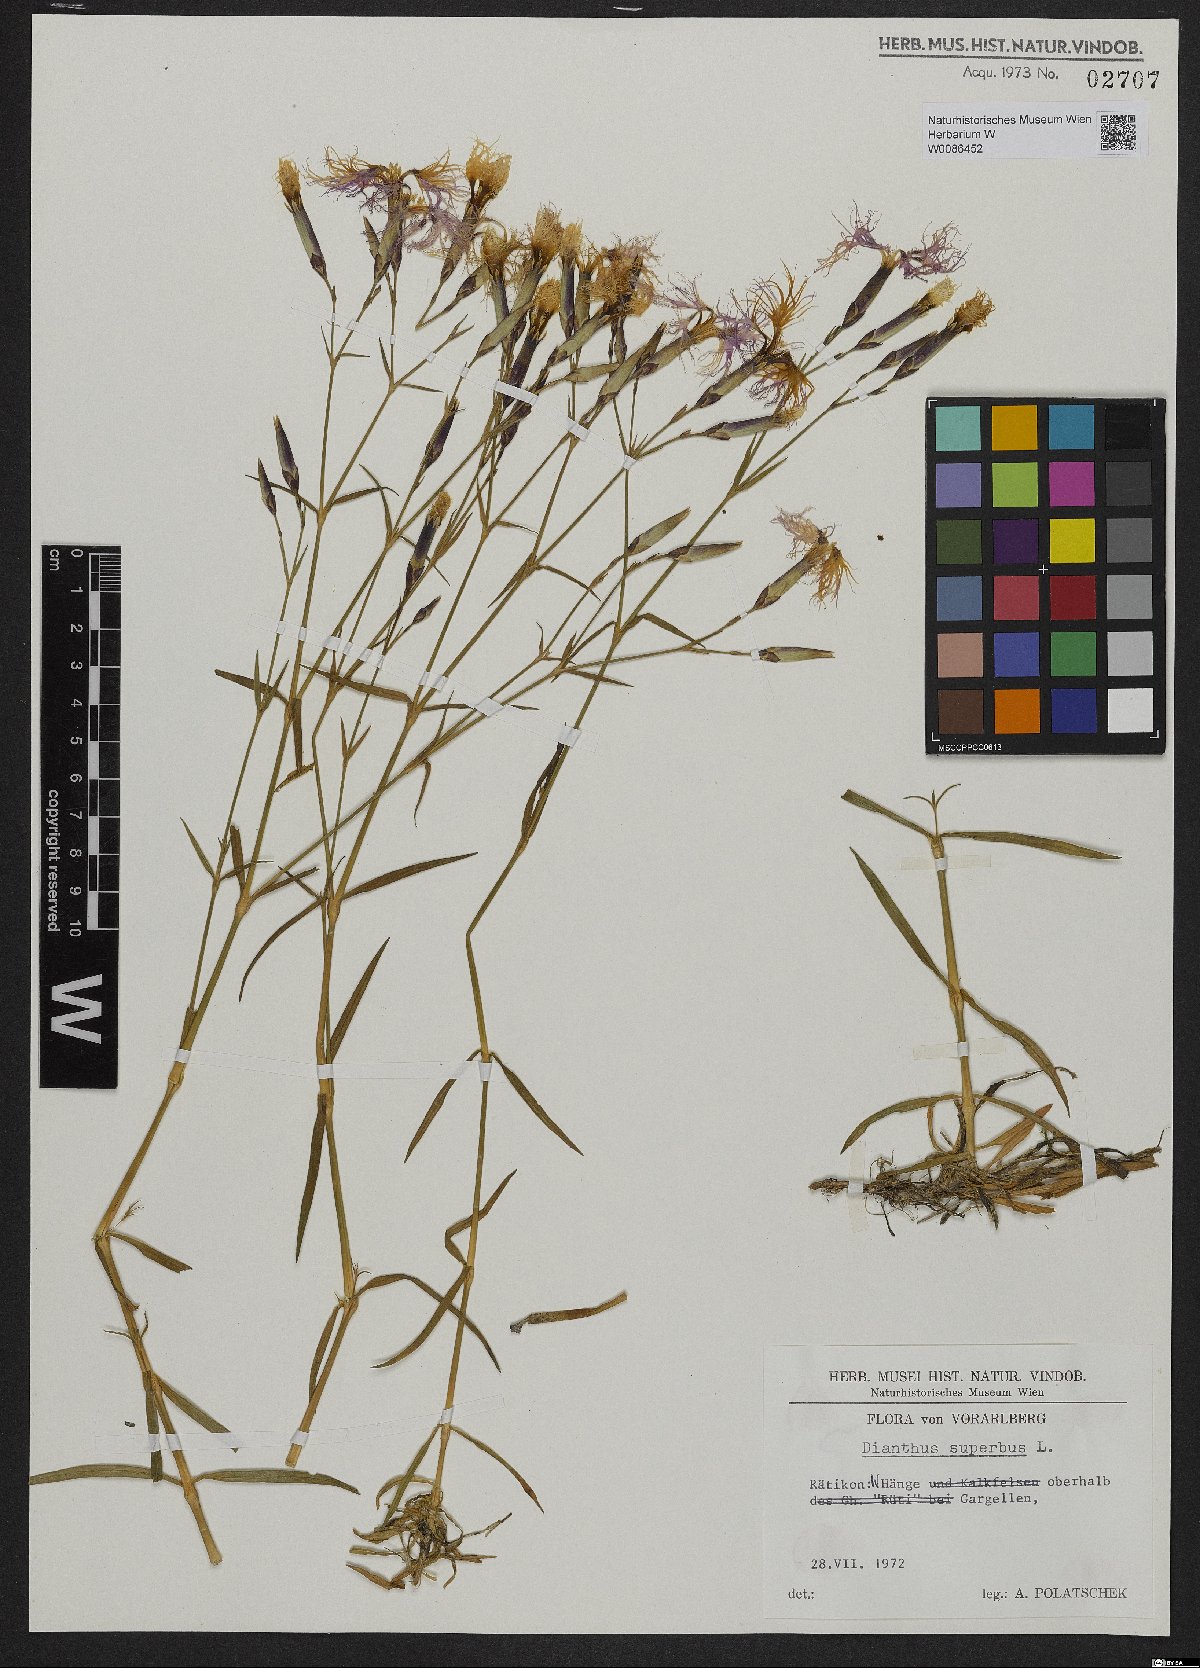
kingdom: Plantae
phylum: Tracheophyta
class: Magnoliopsida
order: Caryophyllales
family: Caryophyllaceae
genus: Dianthus
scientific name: Dianthus superbus
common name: Fringed pink
